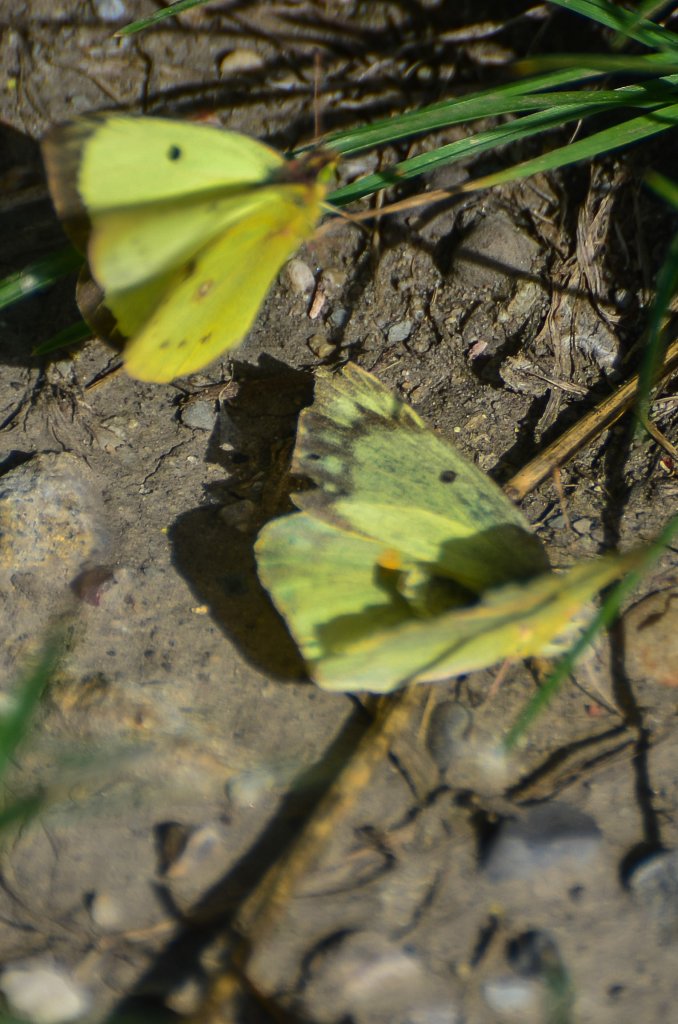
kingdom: Animalia
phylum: Arthropoda
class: Insecta
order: Lepidoptera
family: Pieridae
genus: Colias
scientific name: Colias philodice
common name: Clouded Sulphur
